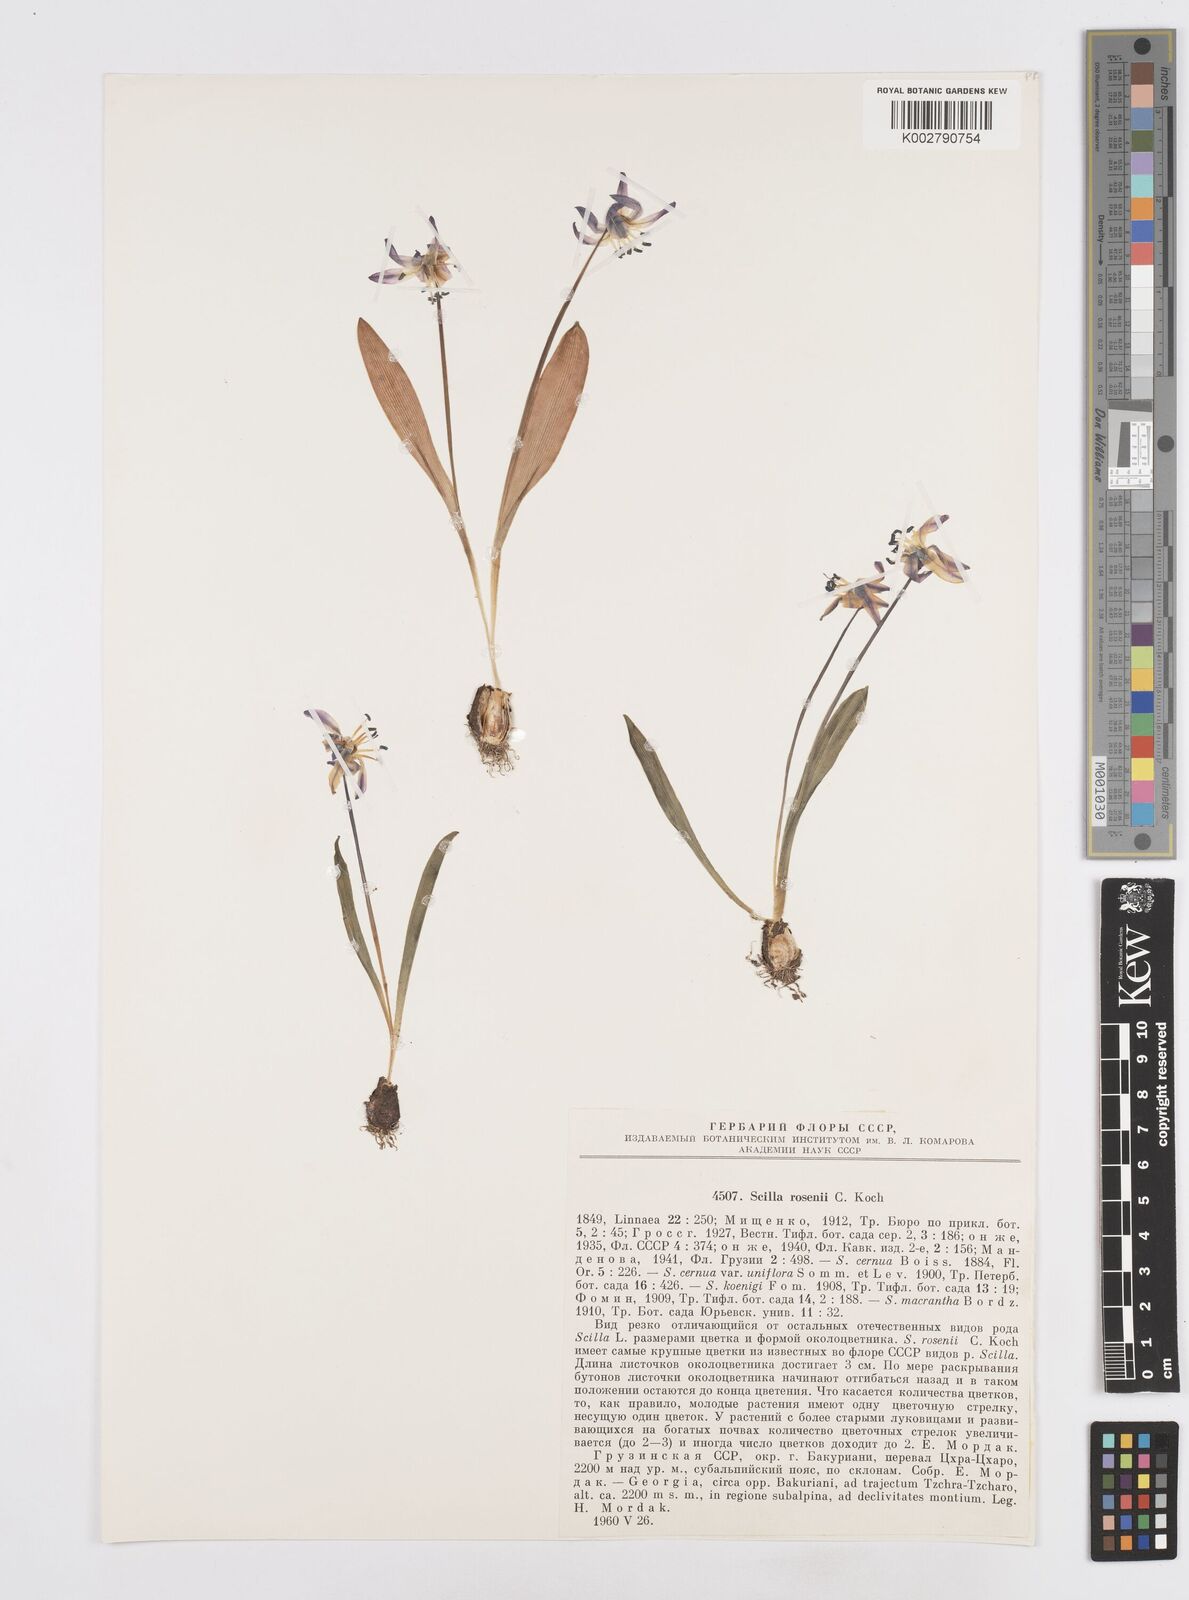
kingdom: Plantae
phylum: Tracheophyta
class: Liliopsida
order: Asparagales
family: Asparagaceae
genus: Scilla
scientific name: Scilla rosenii
